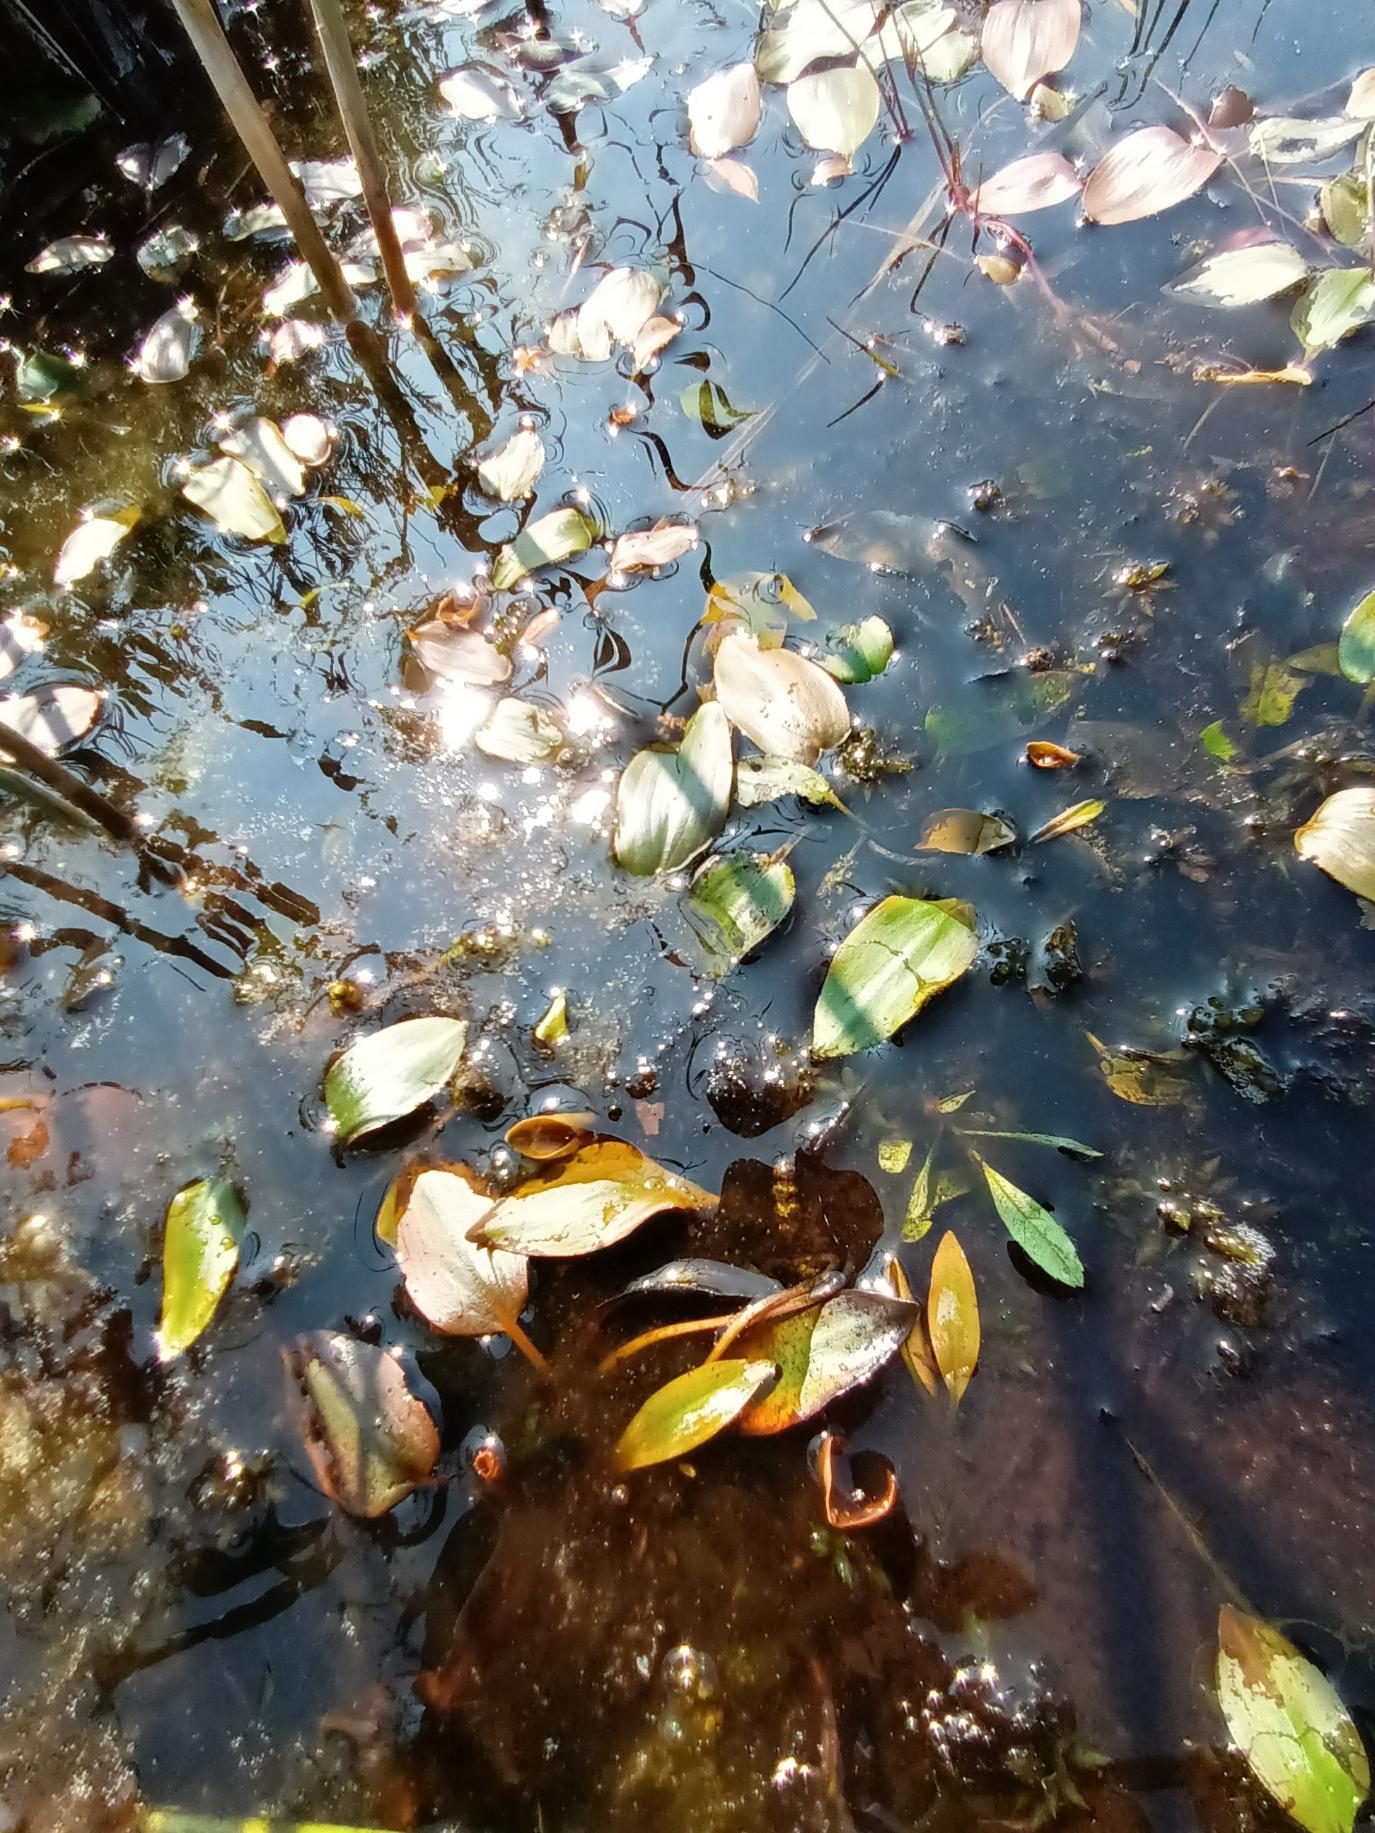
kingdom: Plantae
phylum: Tracheophyta
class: Liliopsida
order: Alismatales
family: Potamogetonaceae
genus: Potamogeton
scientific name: Potamogeton
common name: Vandaks (Potamogeton-slægten)
